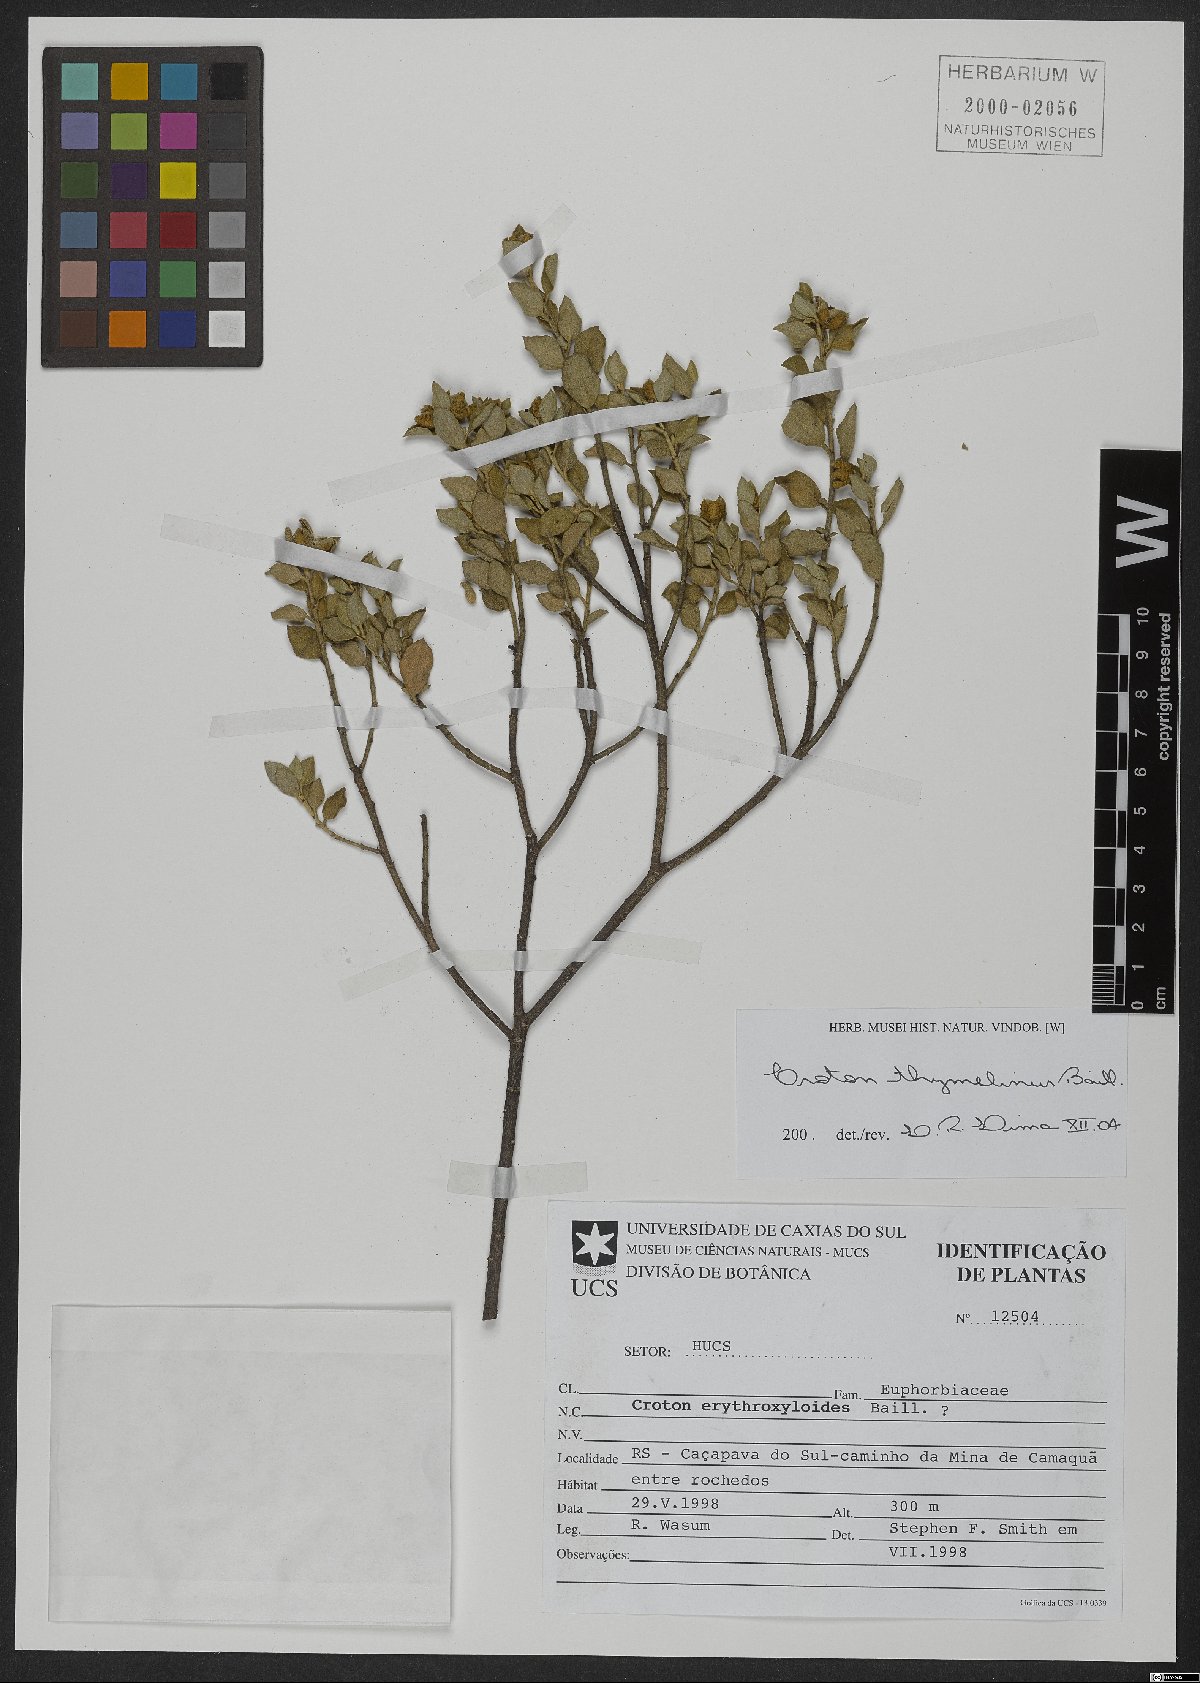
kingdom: Plantae
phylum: Tracheophyta
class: Magnoliopsida
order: Malpighiales
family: Euphorbiaceae
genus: Croton
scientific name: Croton thymelinus
